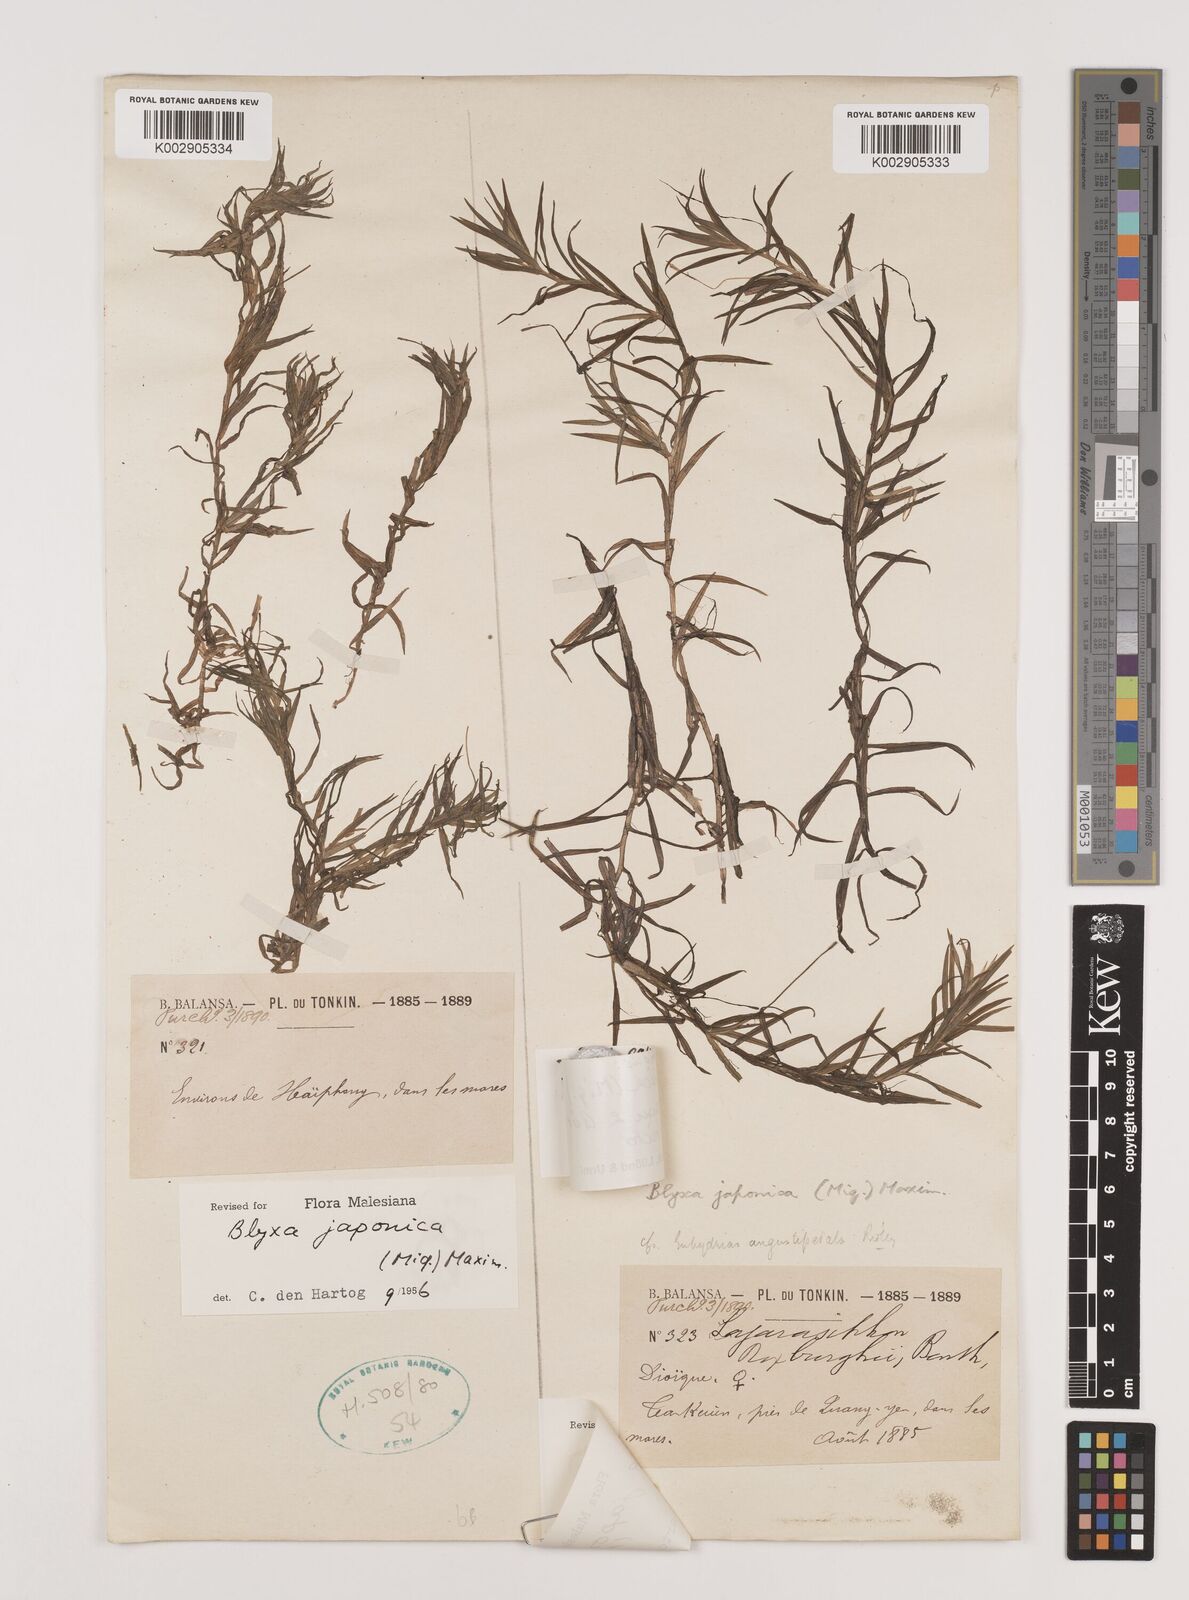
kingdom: Plantae
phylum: Tracheophyta
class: Liliopsida
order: Alismatales
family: Hydrocharitaceae
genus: Blyxa
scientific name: Blyxa japonica
